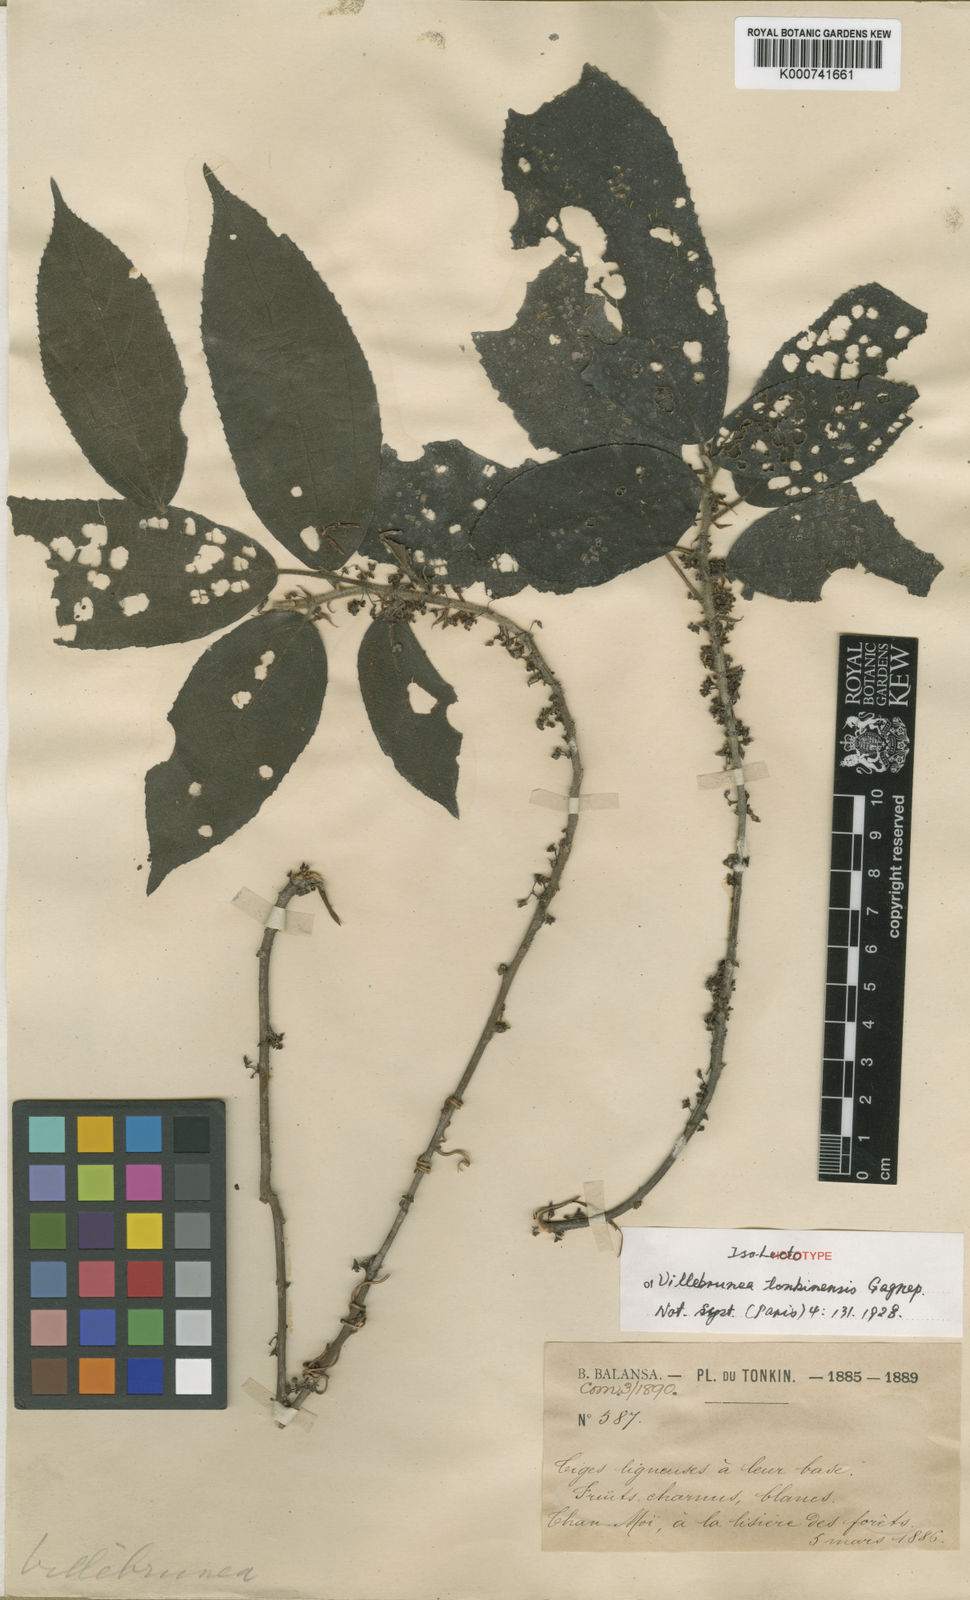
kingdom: Plantae
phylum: Tracheophyta
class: Magnoliopsida
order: Rosales
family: Urticaceae
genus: Oreocnide
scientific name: Oreocnide tonkinensis
